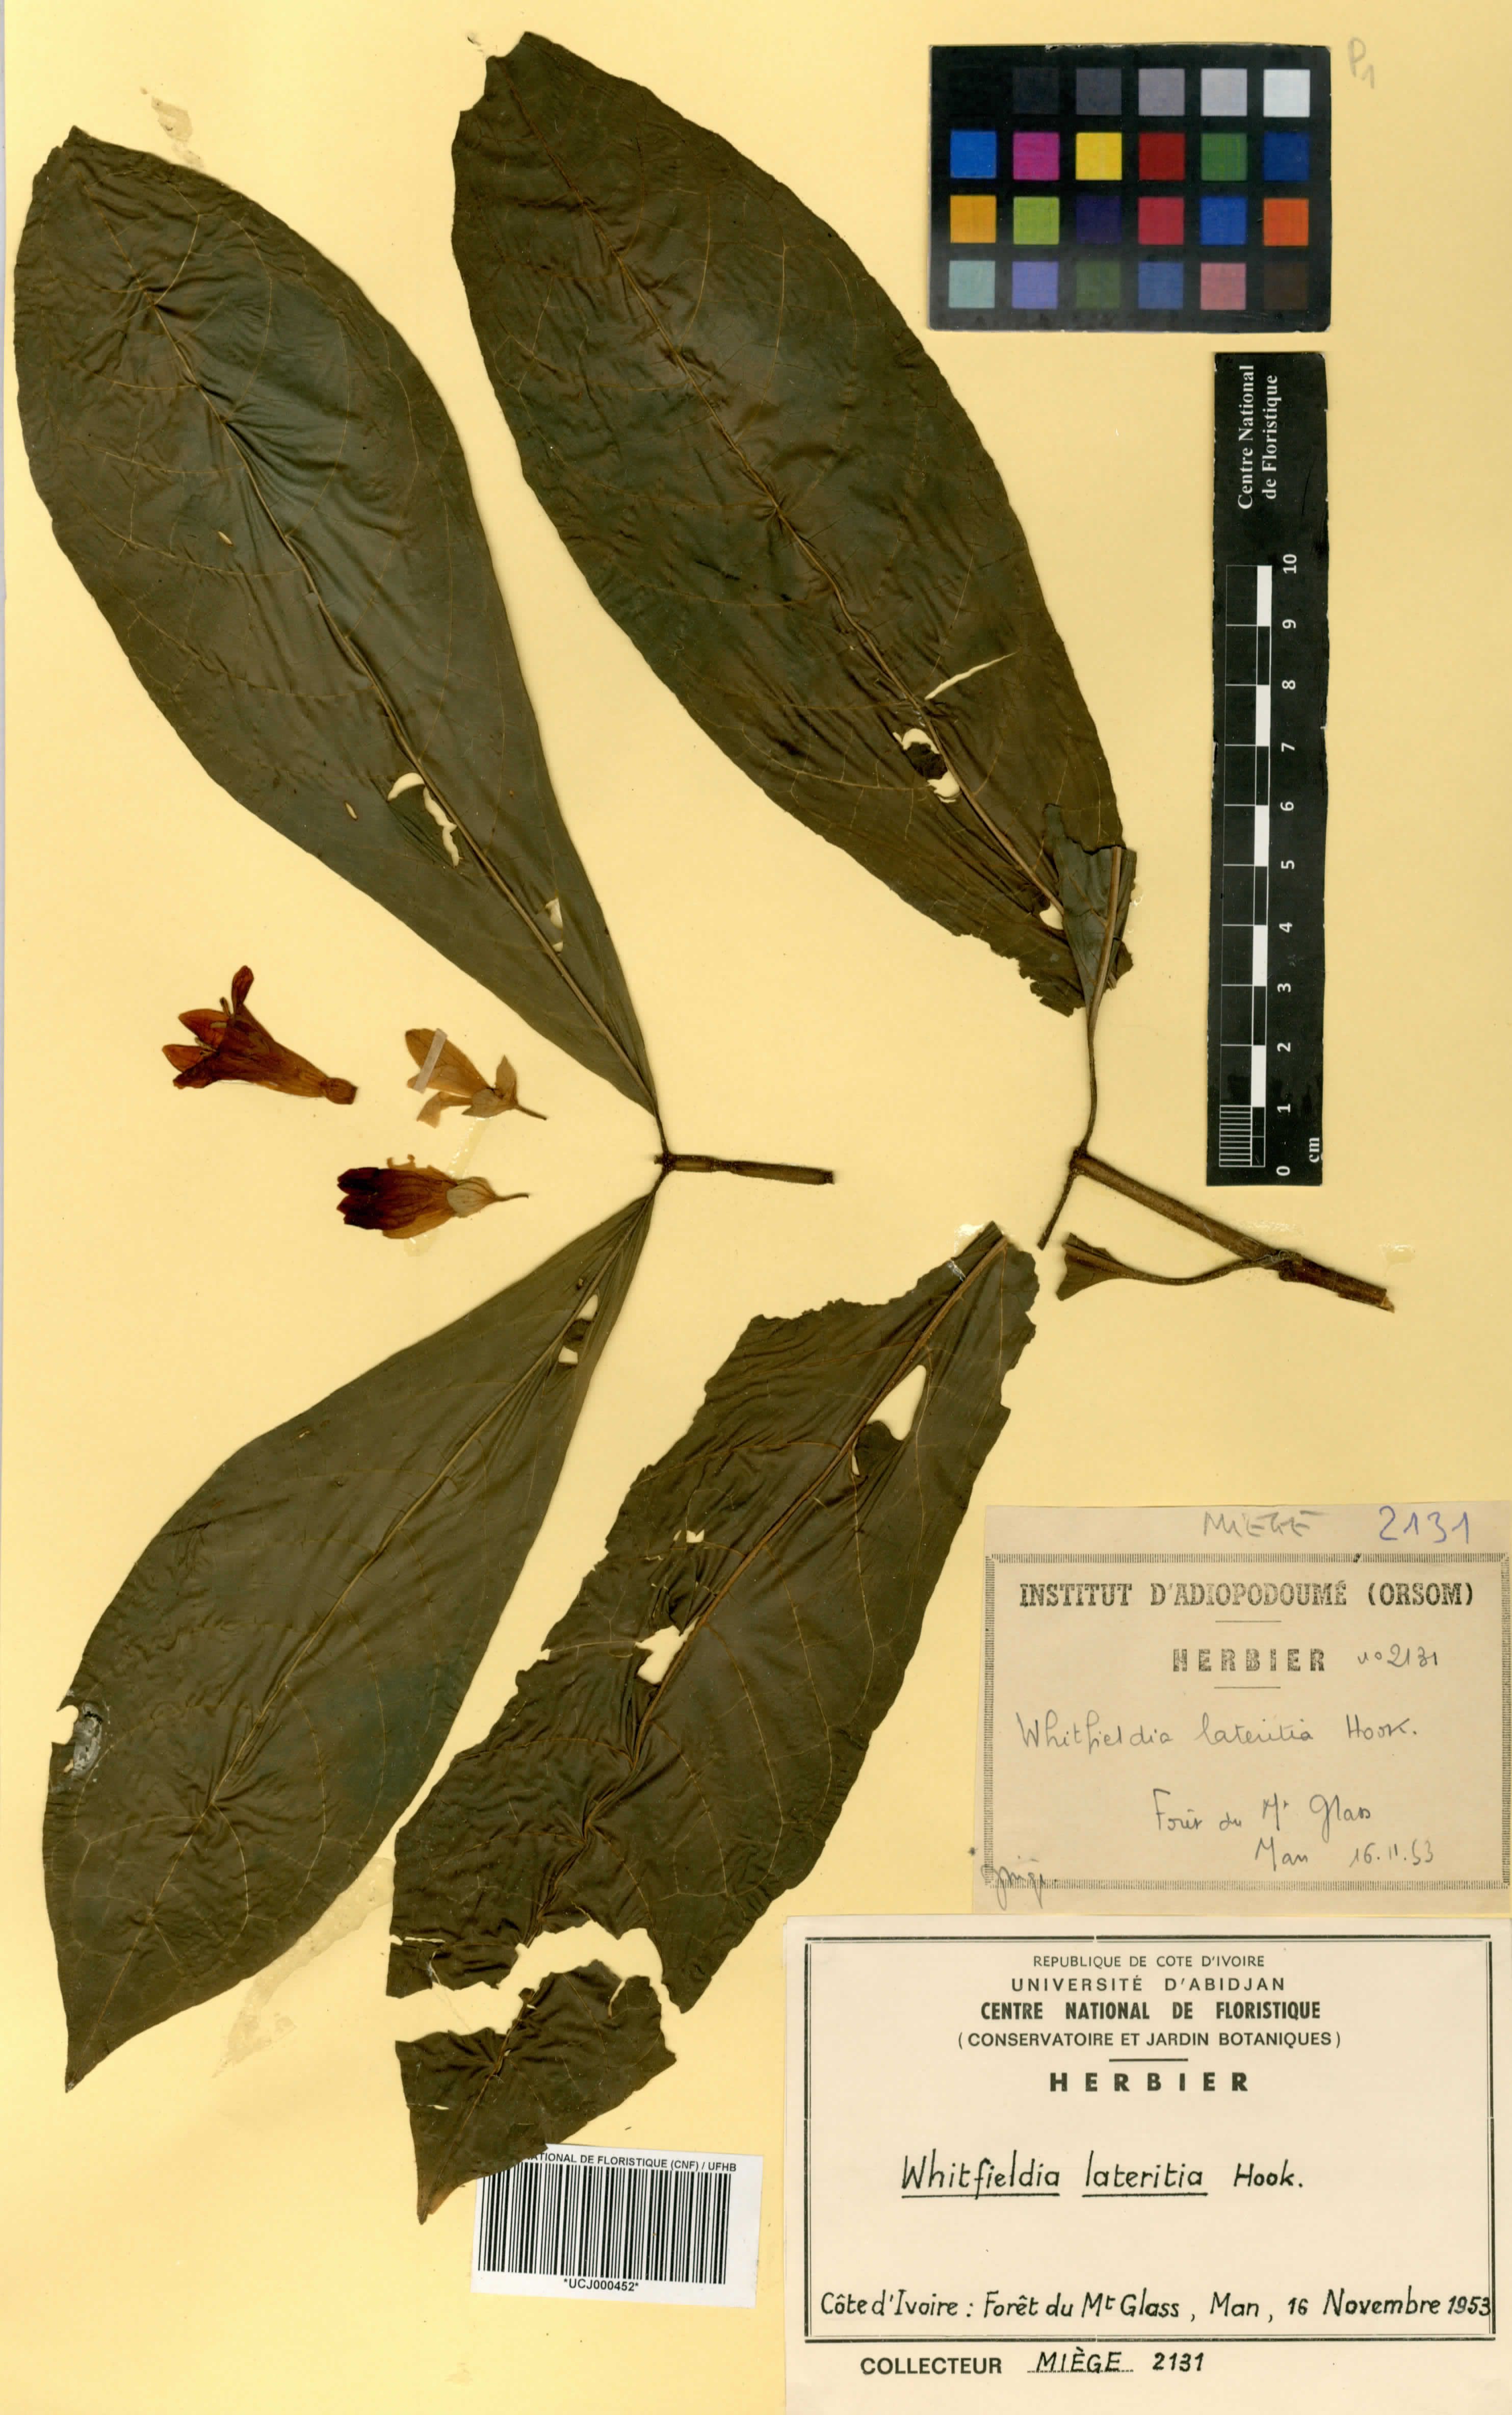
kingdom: Plantae
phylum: Tracheophyta
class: Magnoliopsida
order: Lamiales
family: Acanthaceae
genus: Whitfieldia
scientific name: Whitfieldia lateritia
